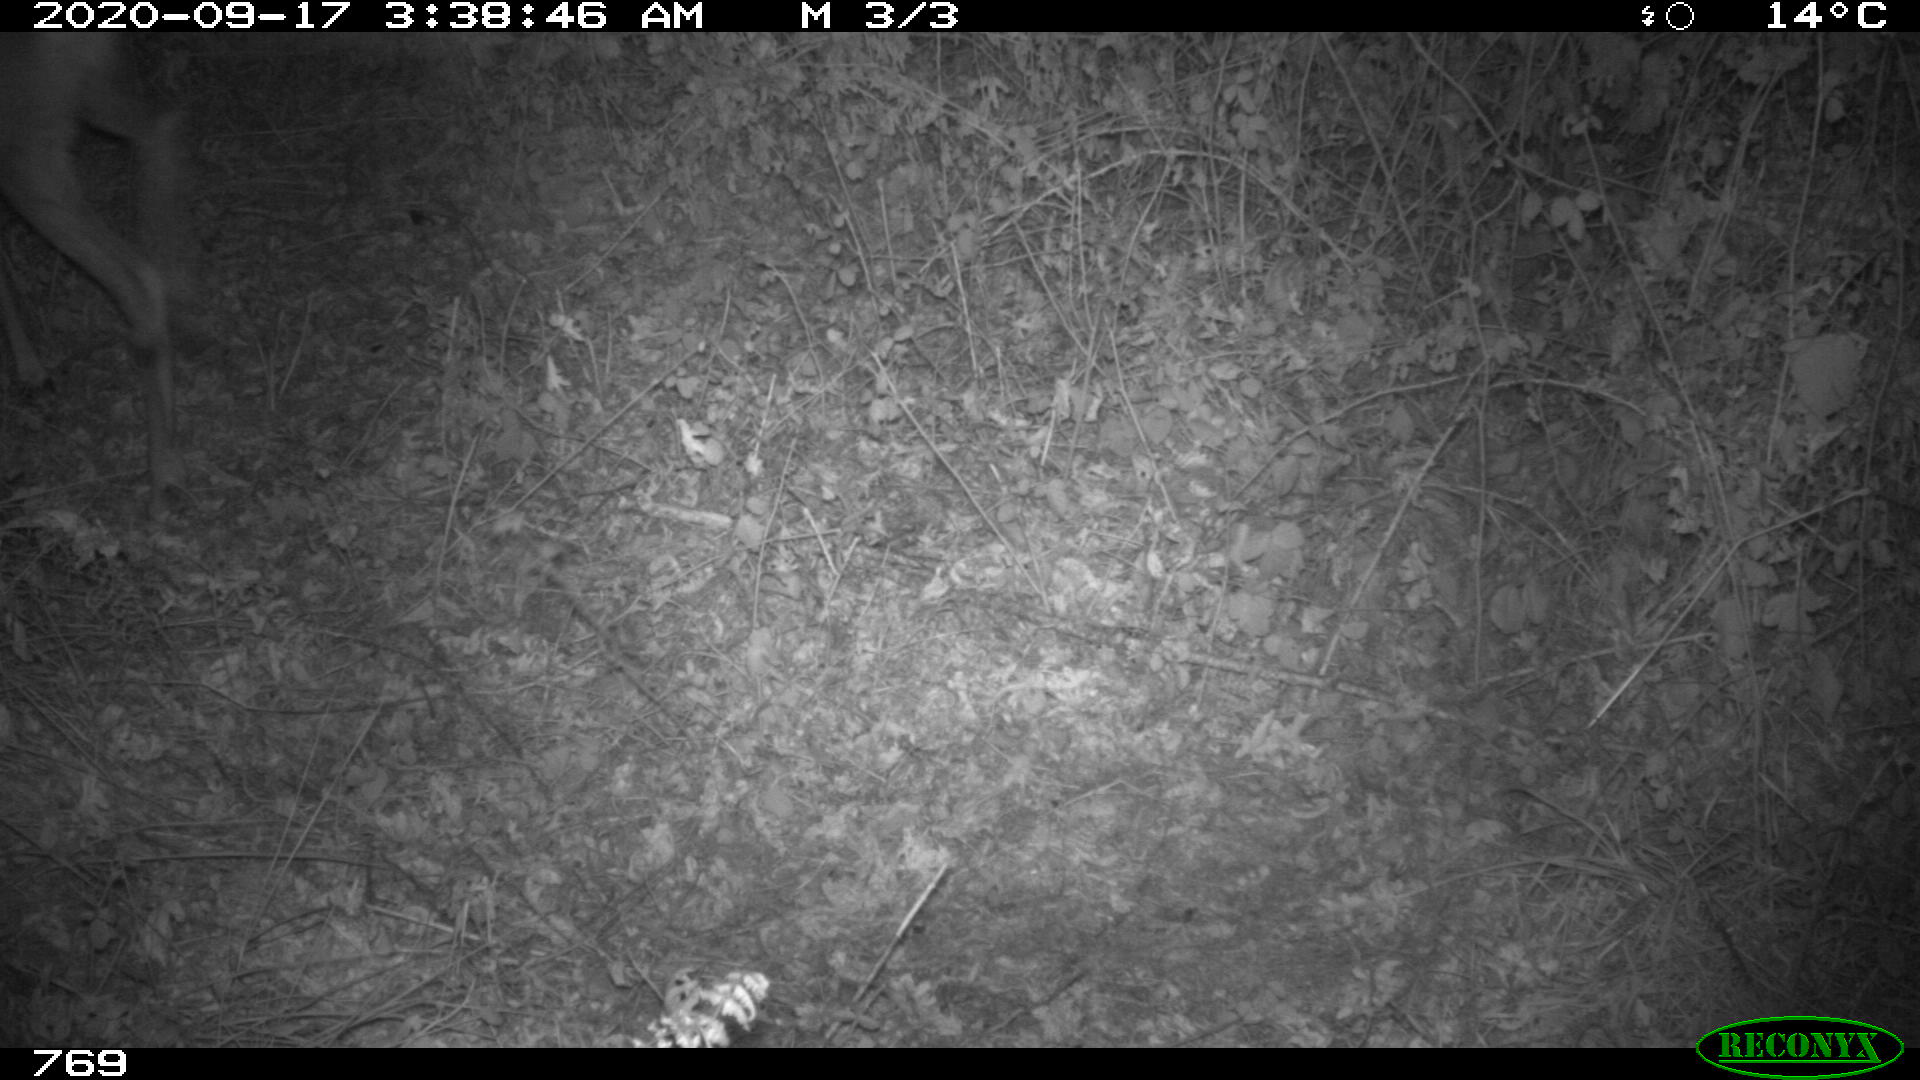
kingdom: Animalia
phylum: Chordata
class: Mammalia
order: Artiodactyla
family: Cervidae
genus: Capreolus
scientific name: Capreolus capreolus
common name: Western roe deer
